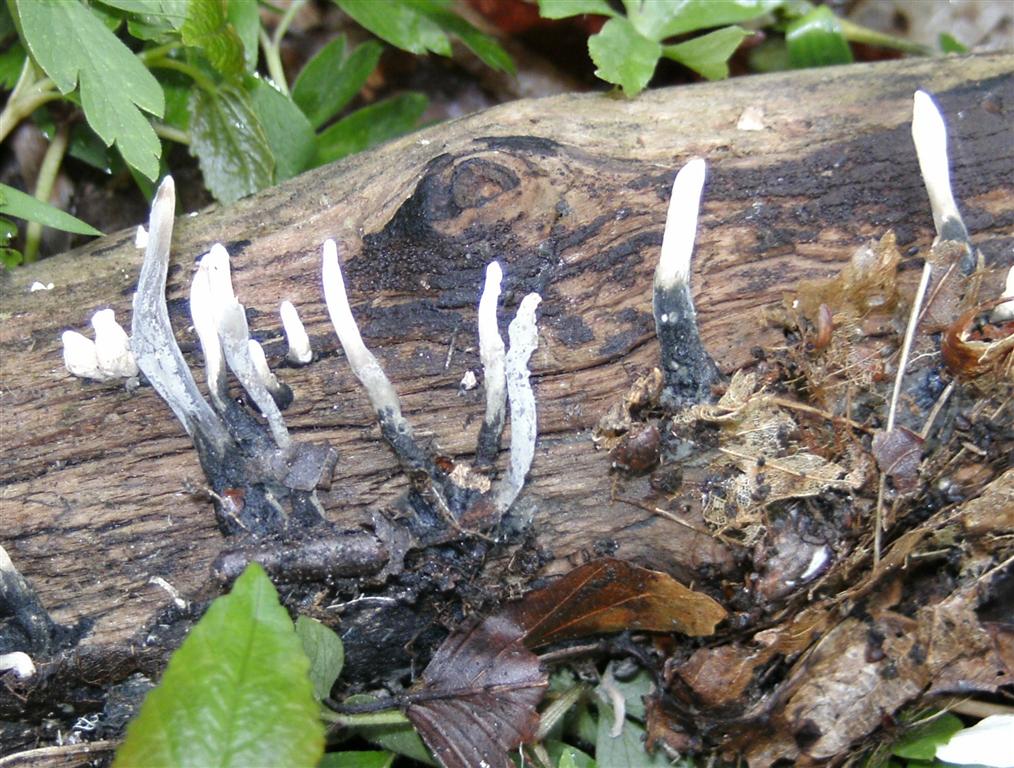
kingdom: Fungi
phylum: Ascomycota
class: Sordariomycetes
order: Xylariales
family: Xylariaceae
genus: Xylaria
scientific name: Xylaria longipes
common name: slank stødsvamp
